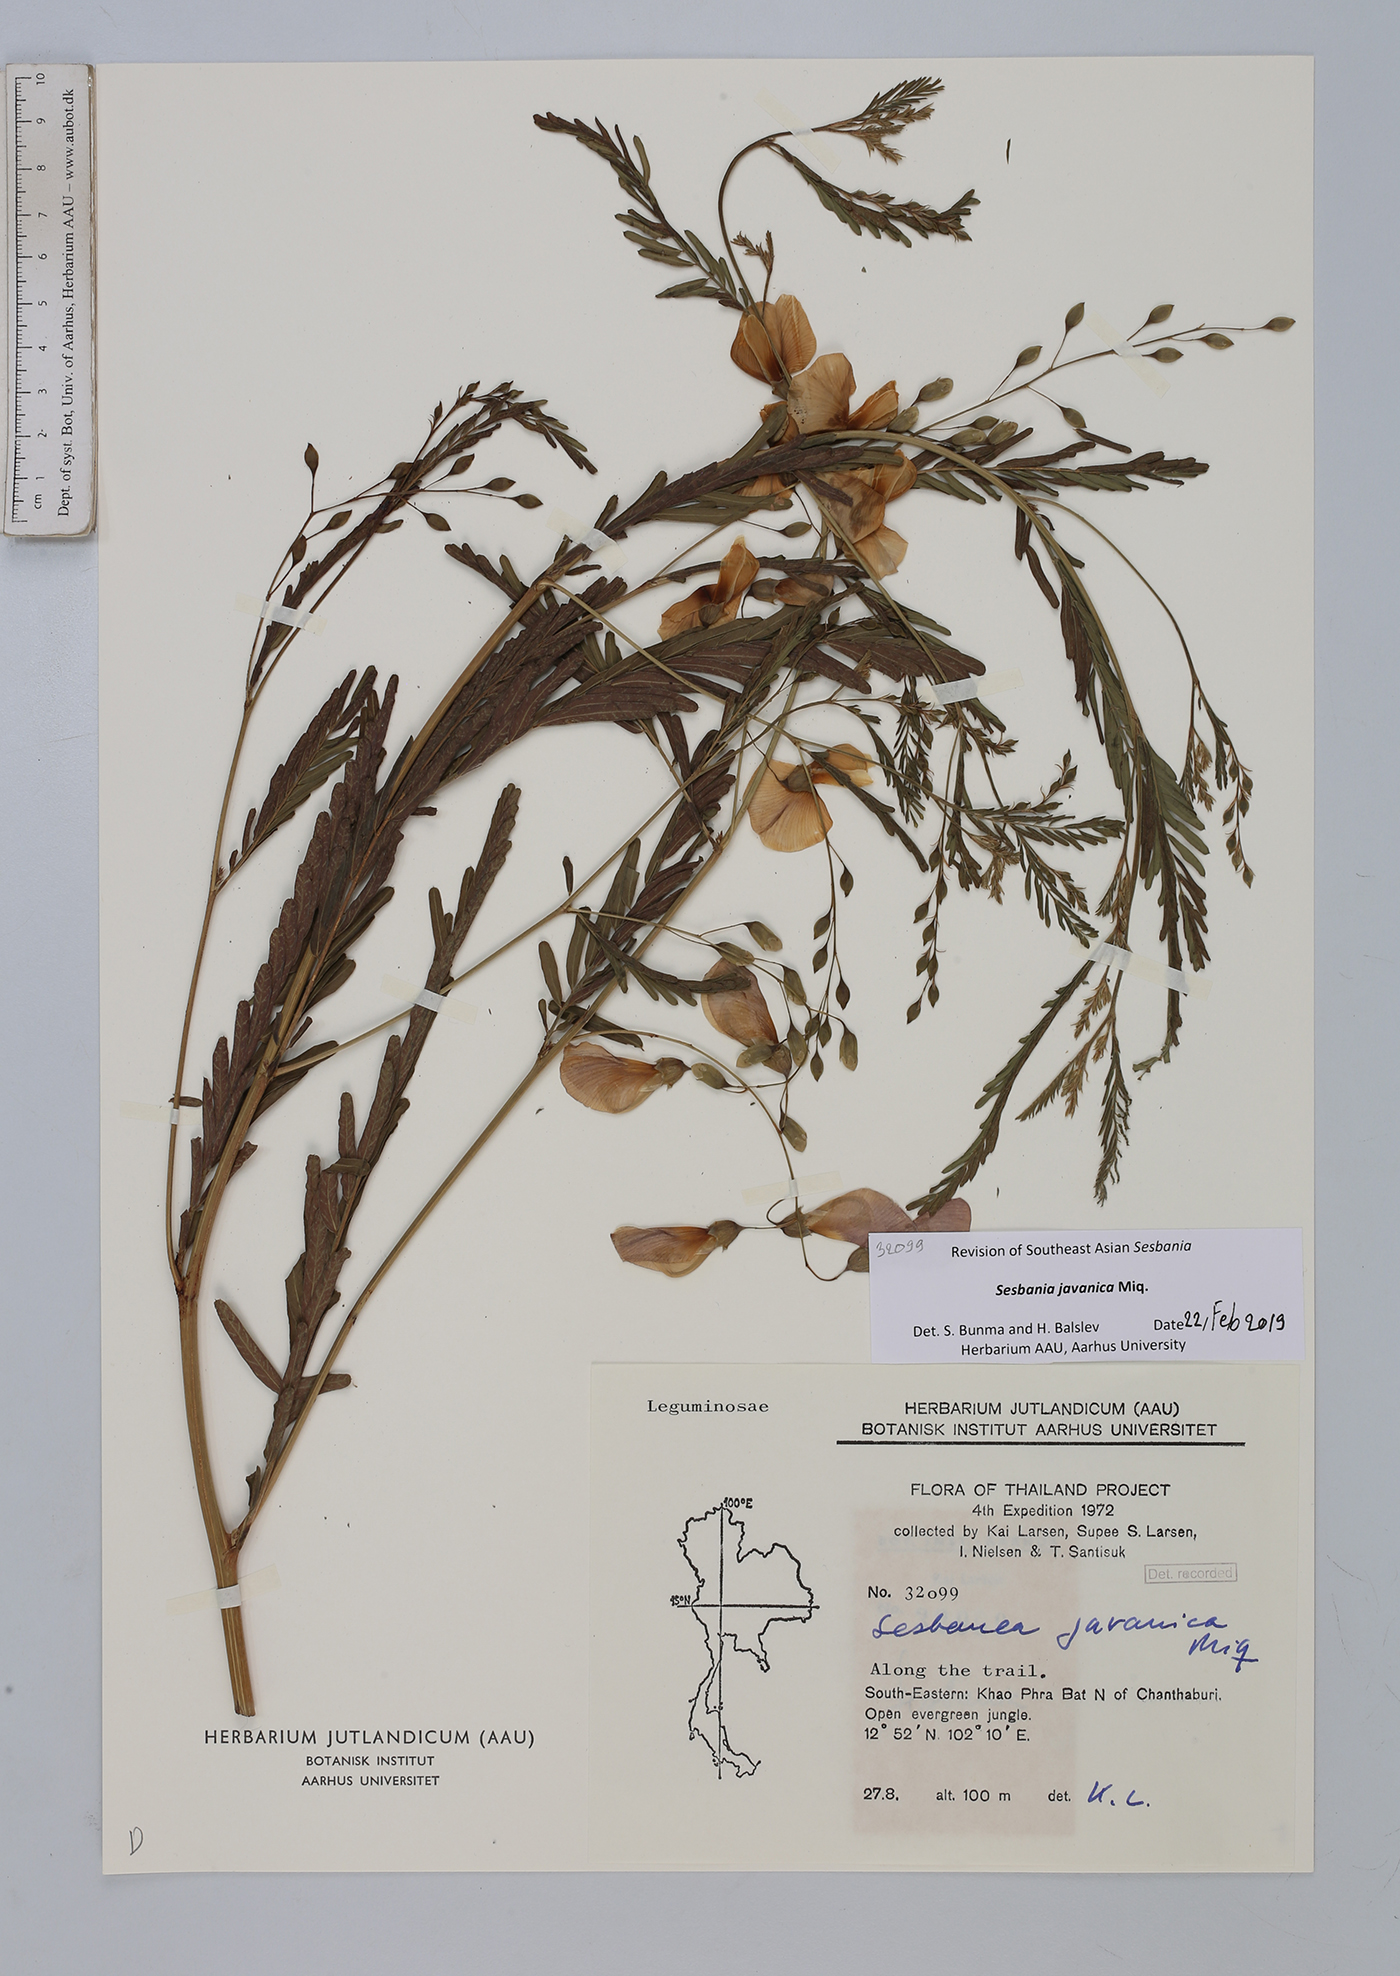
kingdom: Plantae
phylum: Tracheophyta
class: Magnoliopsida
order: Fabales
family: Fabaceae
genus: Sesbania
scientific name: Sesbania javanica
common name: Sesbania-pea
